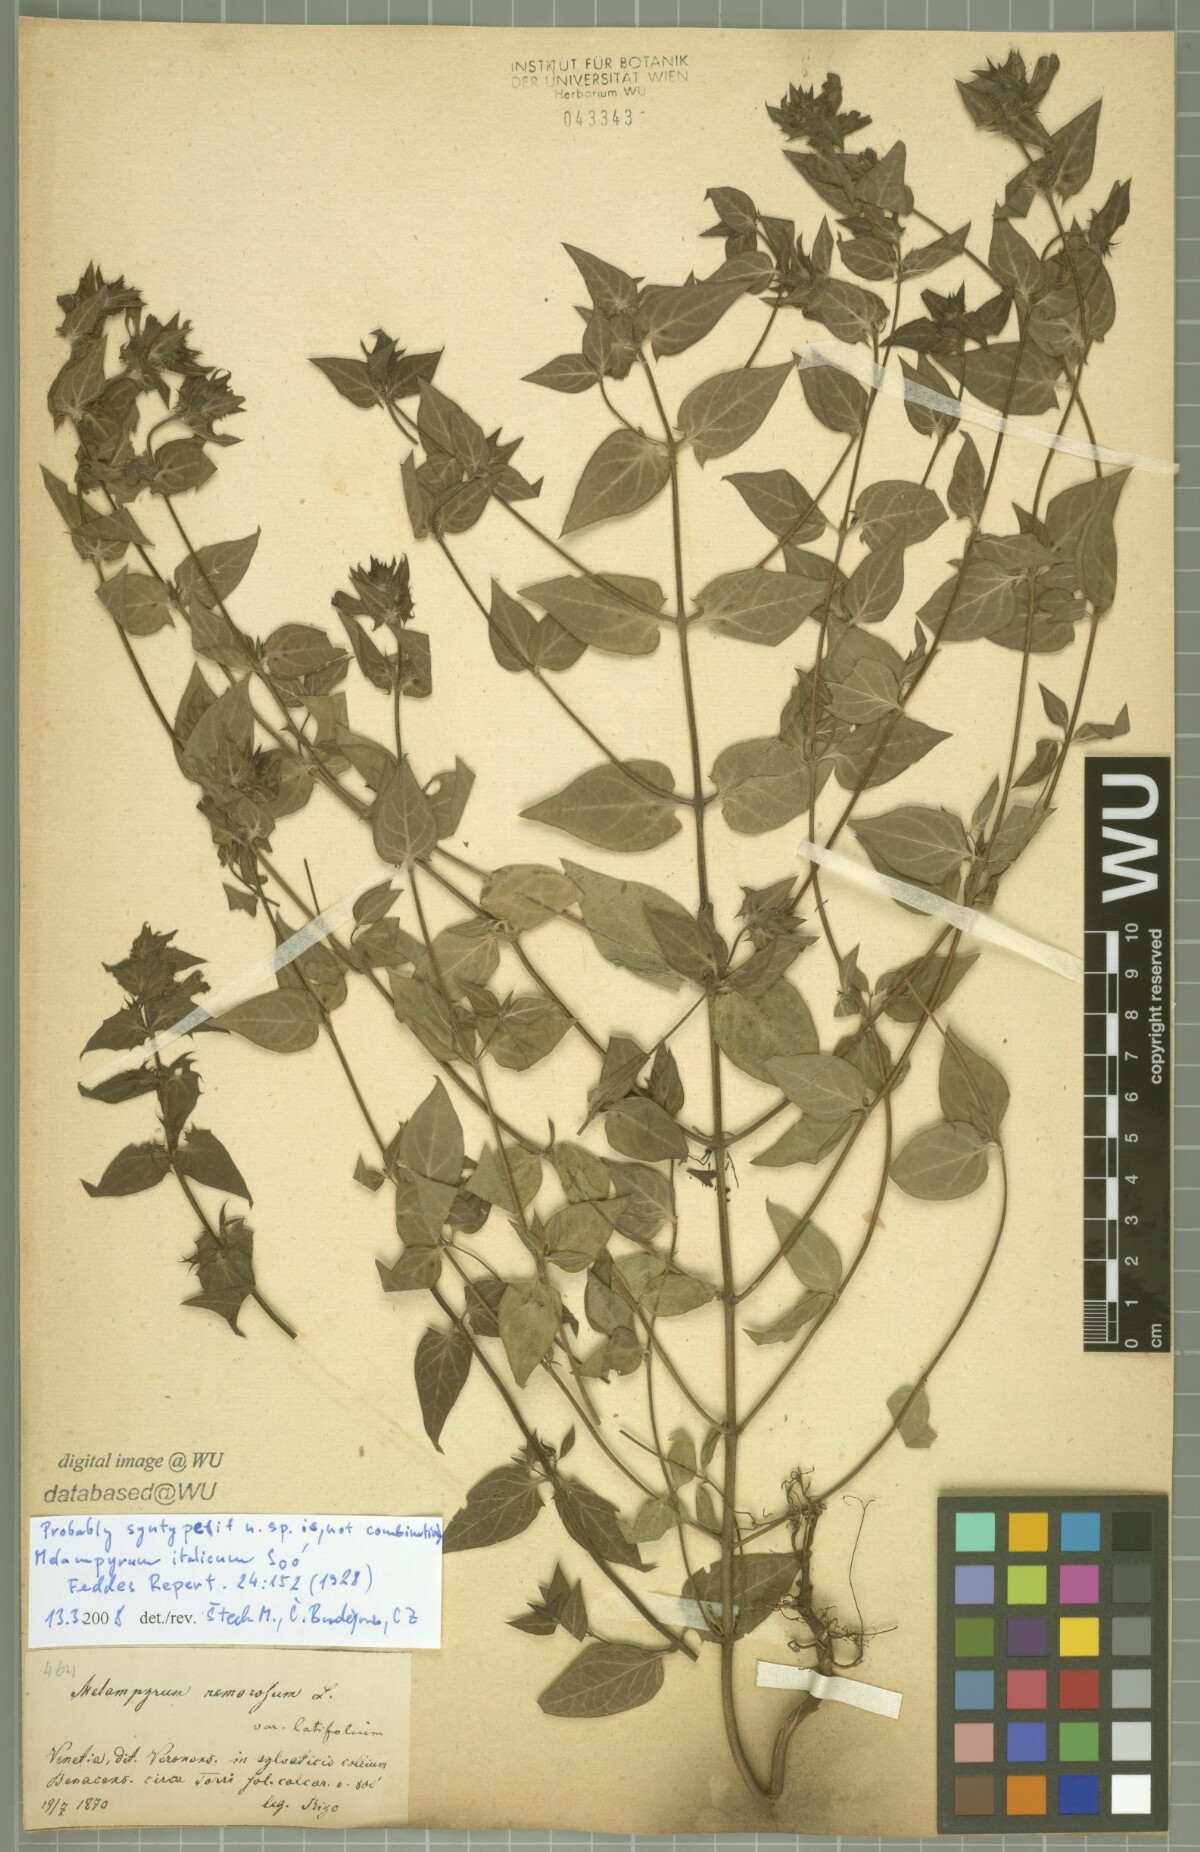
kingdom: Plantae
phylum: Tracheophyta
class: Magnoliopsida
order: Lamiales
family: Orobanchaceae
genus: Melampyrum
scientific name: Melampyrum italicum
